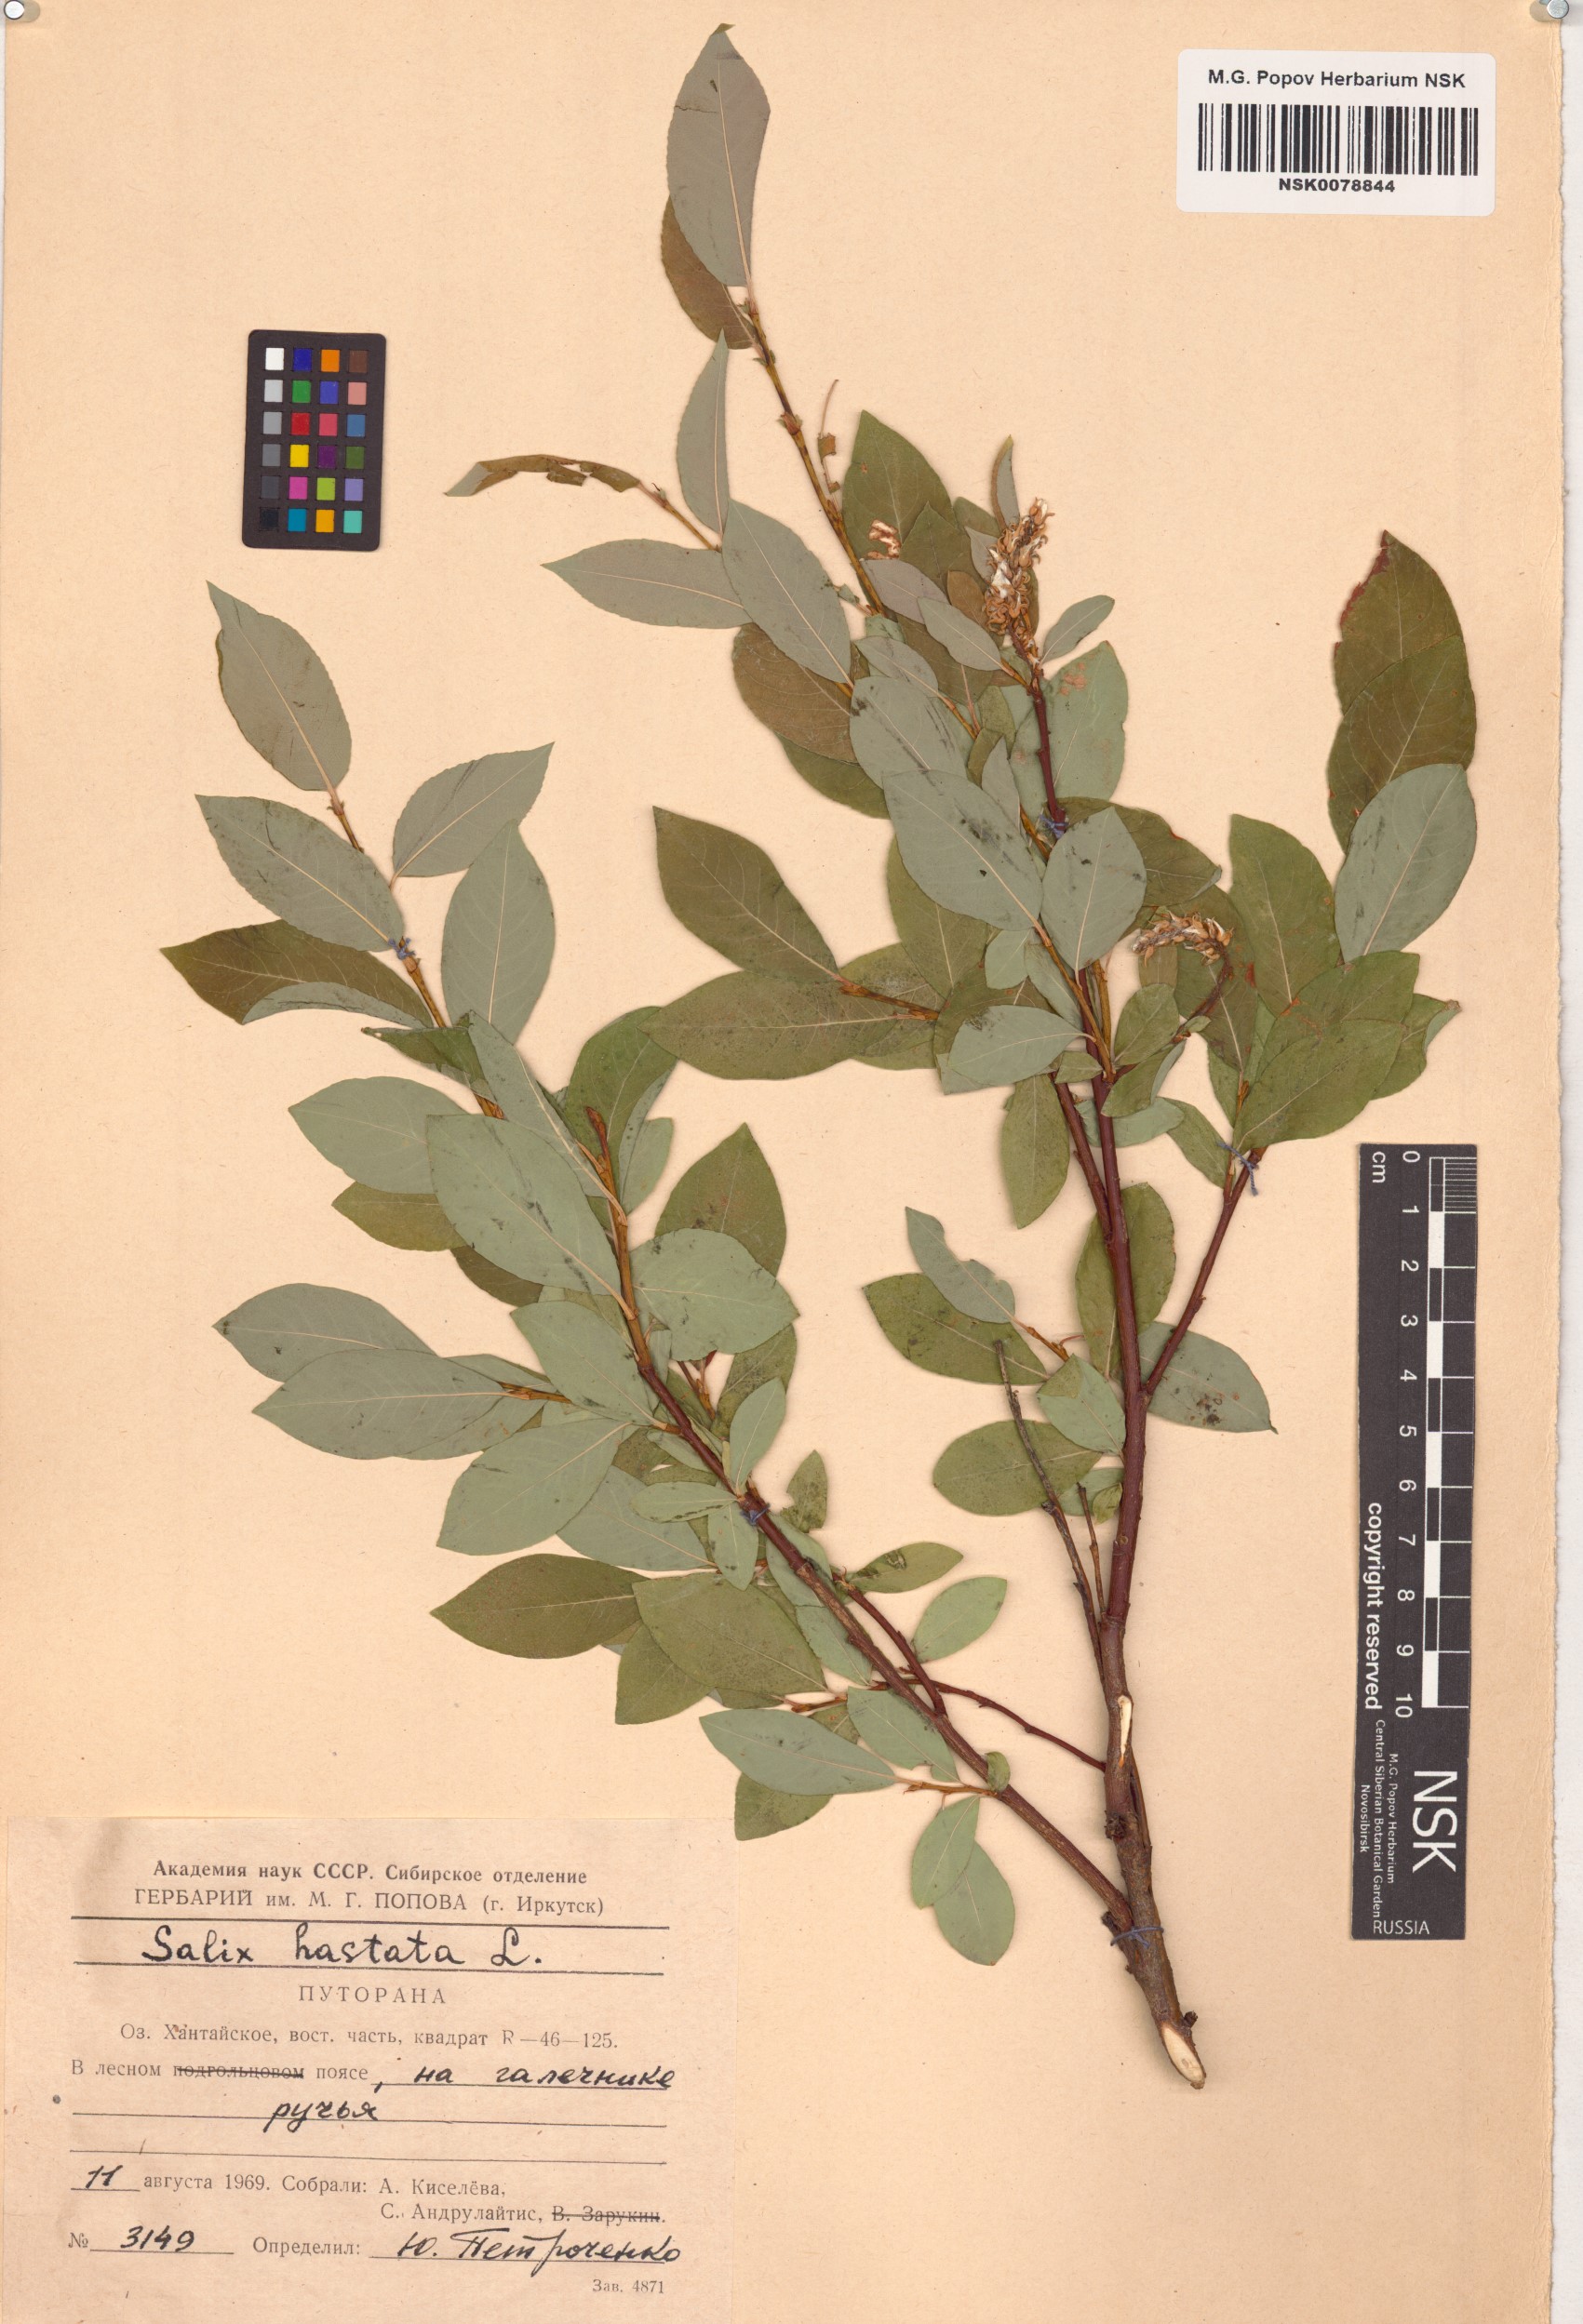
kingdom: Plantae
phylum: Tracheophyta
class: Magnoliopsida
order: Malpighiales
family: Salicaceae
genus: Salix
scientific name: Salix hastata
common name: Halberd willow
